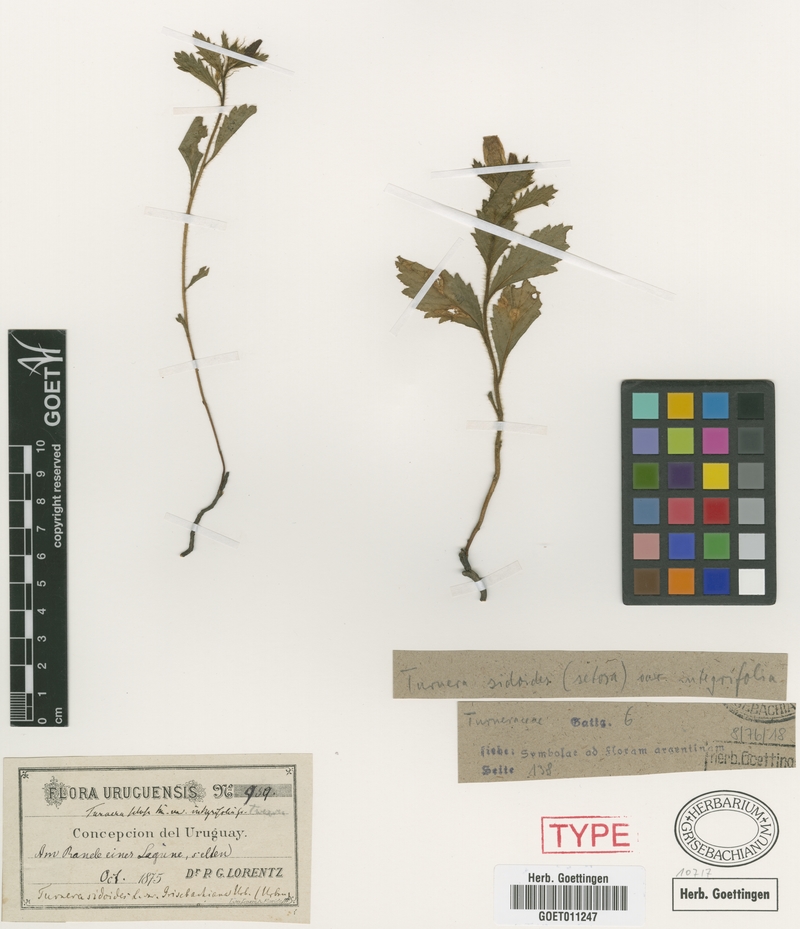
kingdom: Plantae
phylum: Tracheophyta
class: Magnoliopsida
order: Malpighiales
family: Turneraceae
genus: Turnera
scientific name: Turnera sidoides
